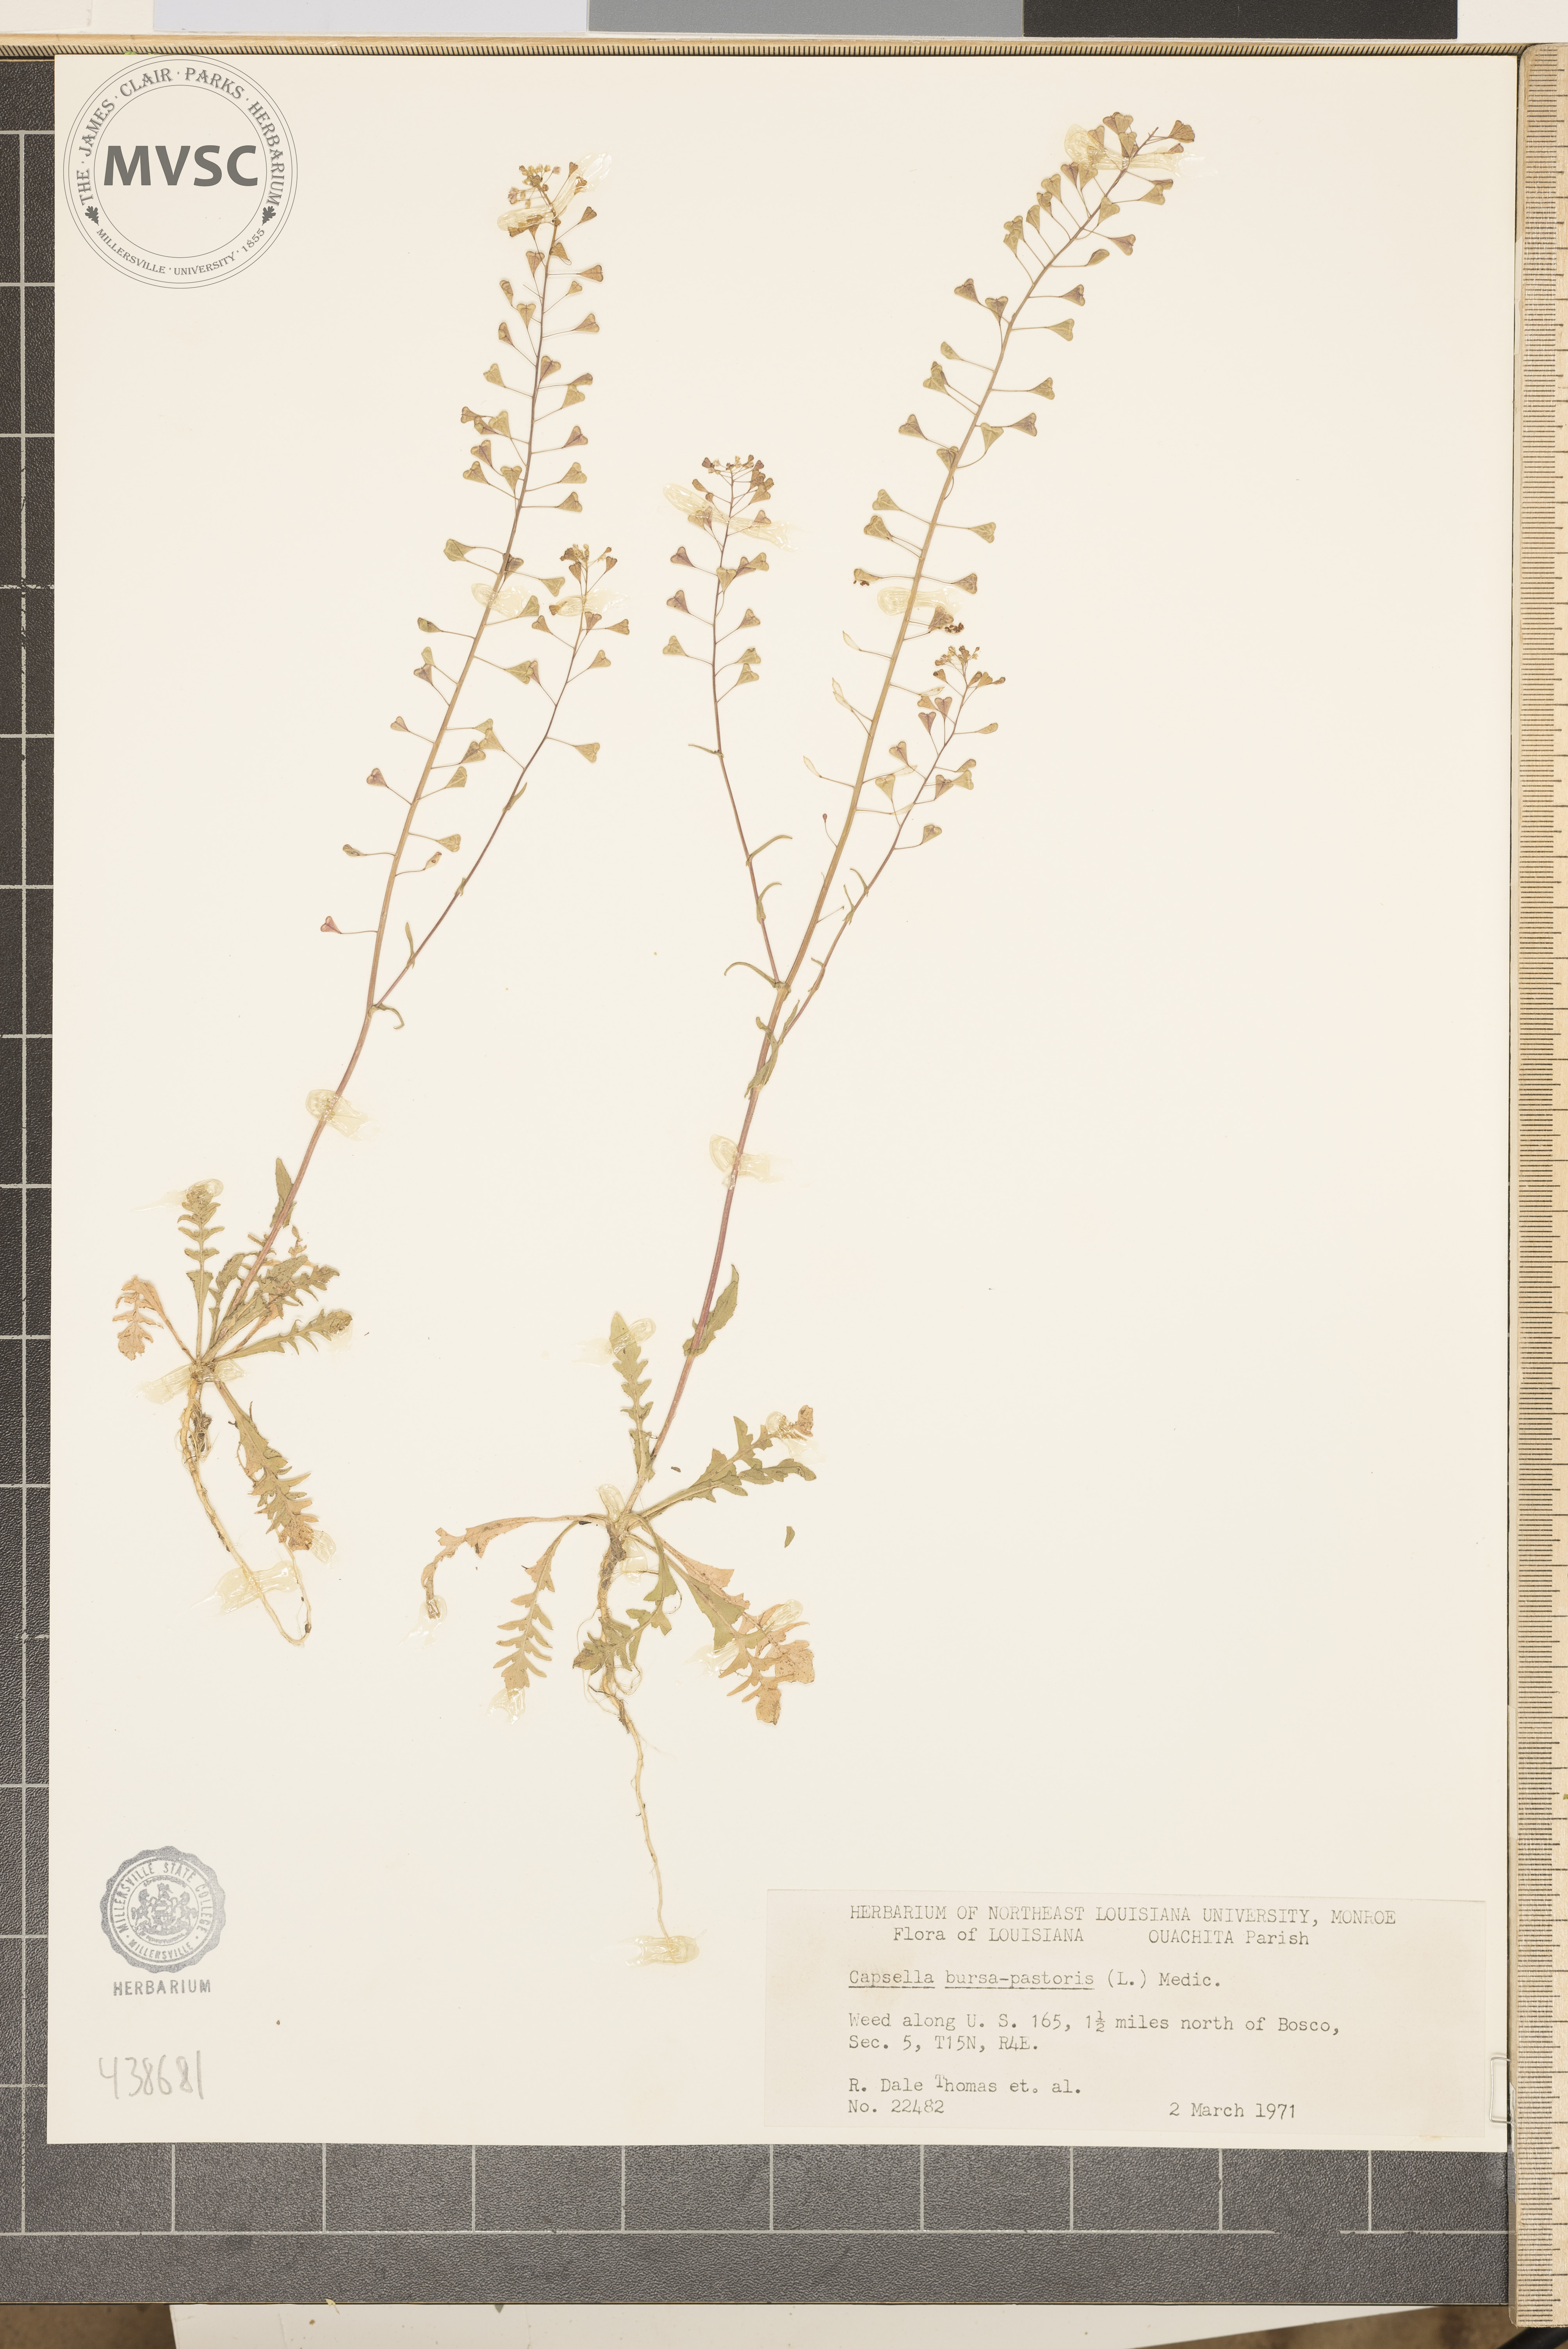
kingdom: Plantae
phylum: Tracheophyta
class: Magnoliopsida
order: Brassicales
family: Brassicaceae
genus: Capsella
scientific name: Capsella bursa-pastoris
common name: Shepherd's purse
